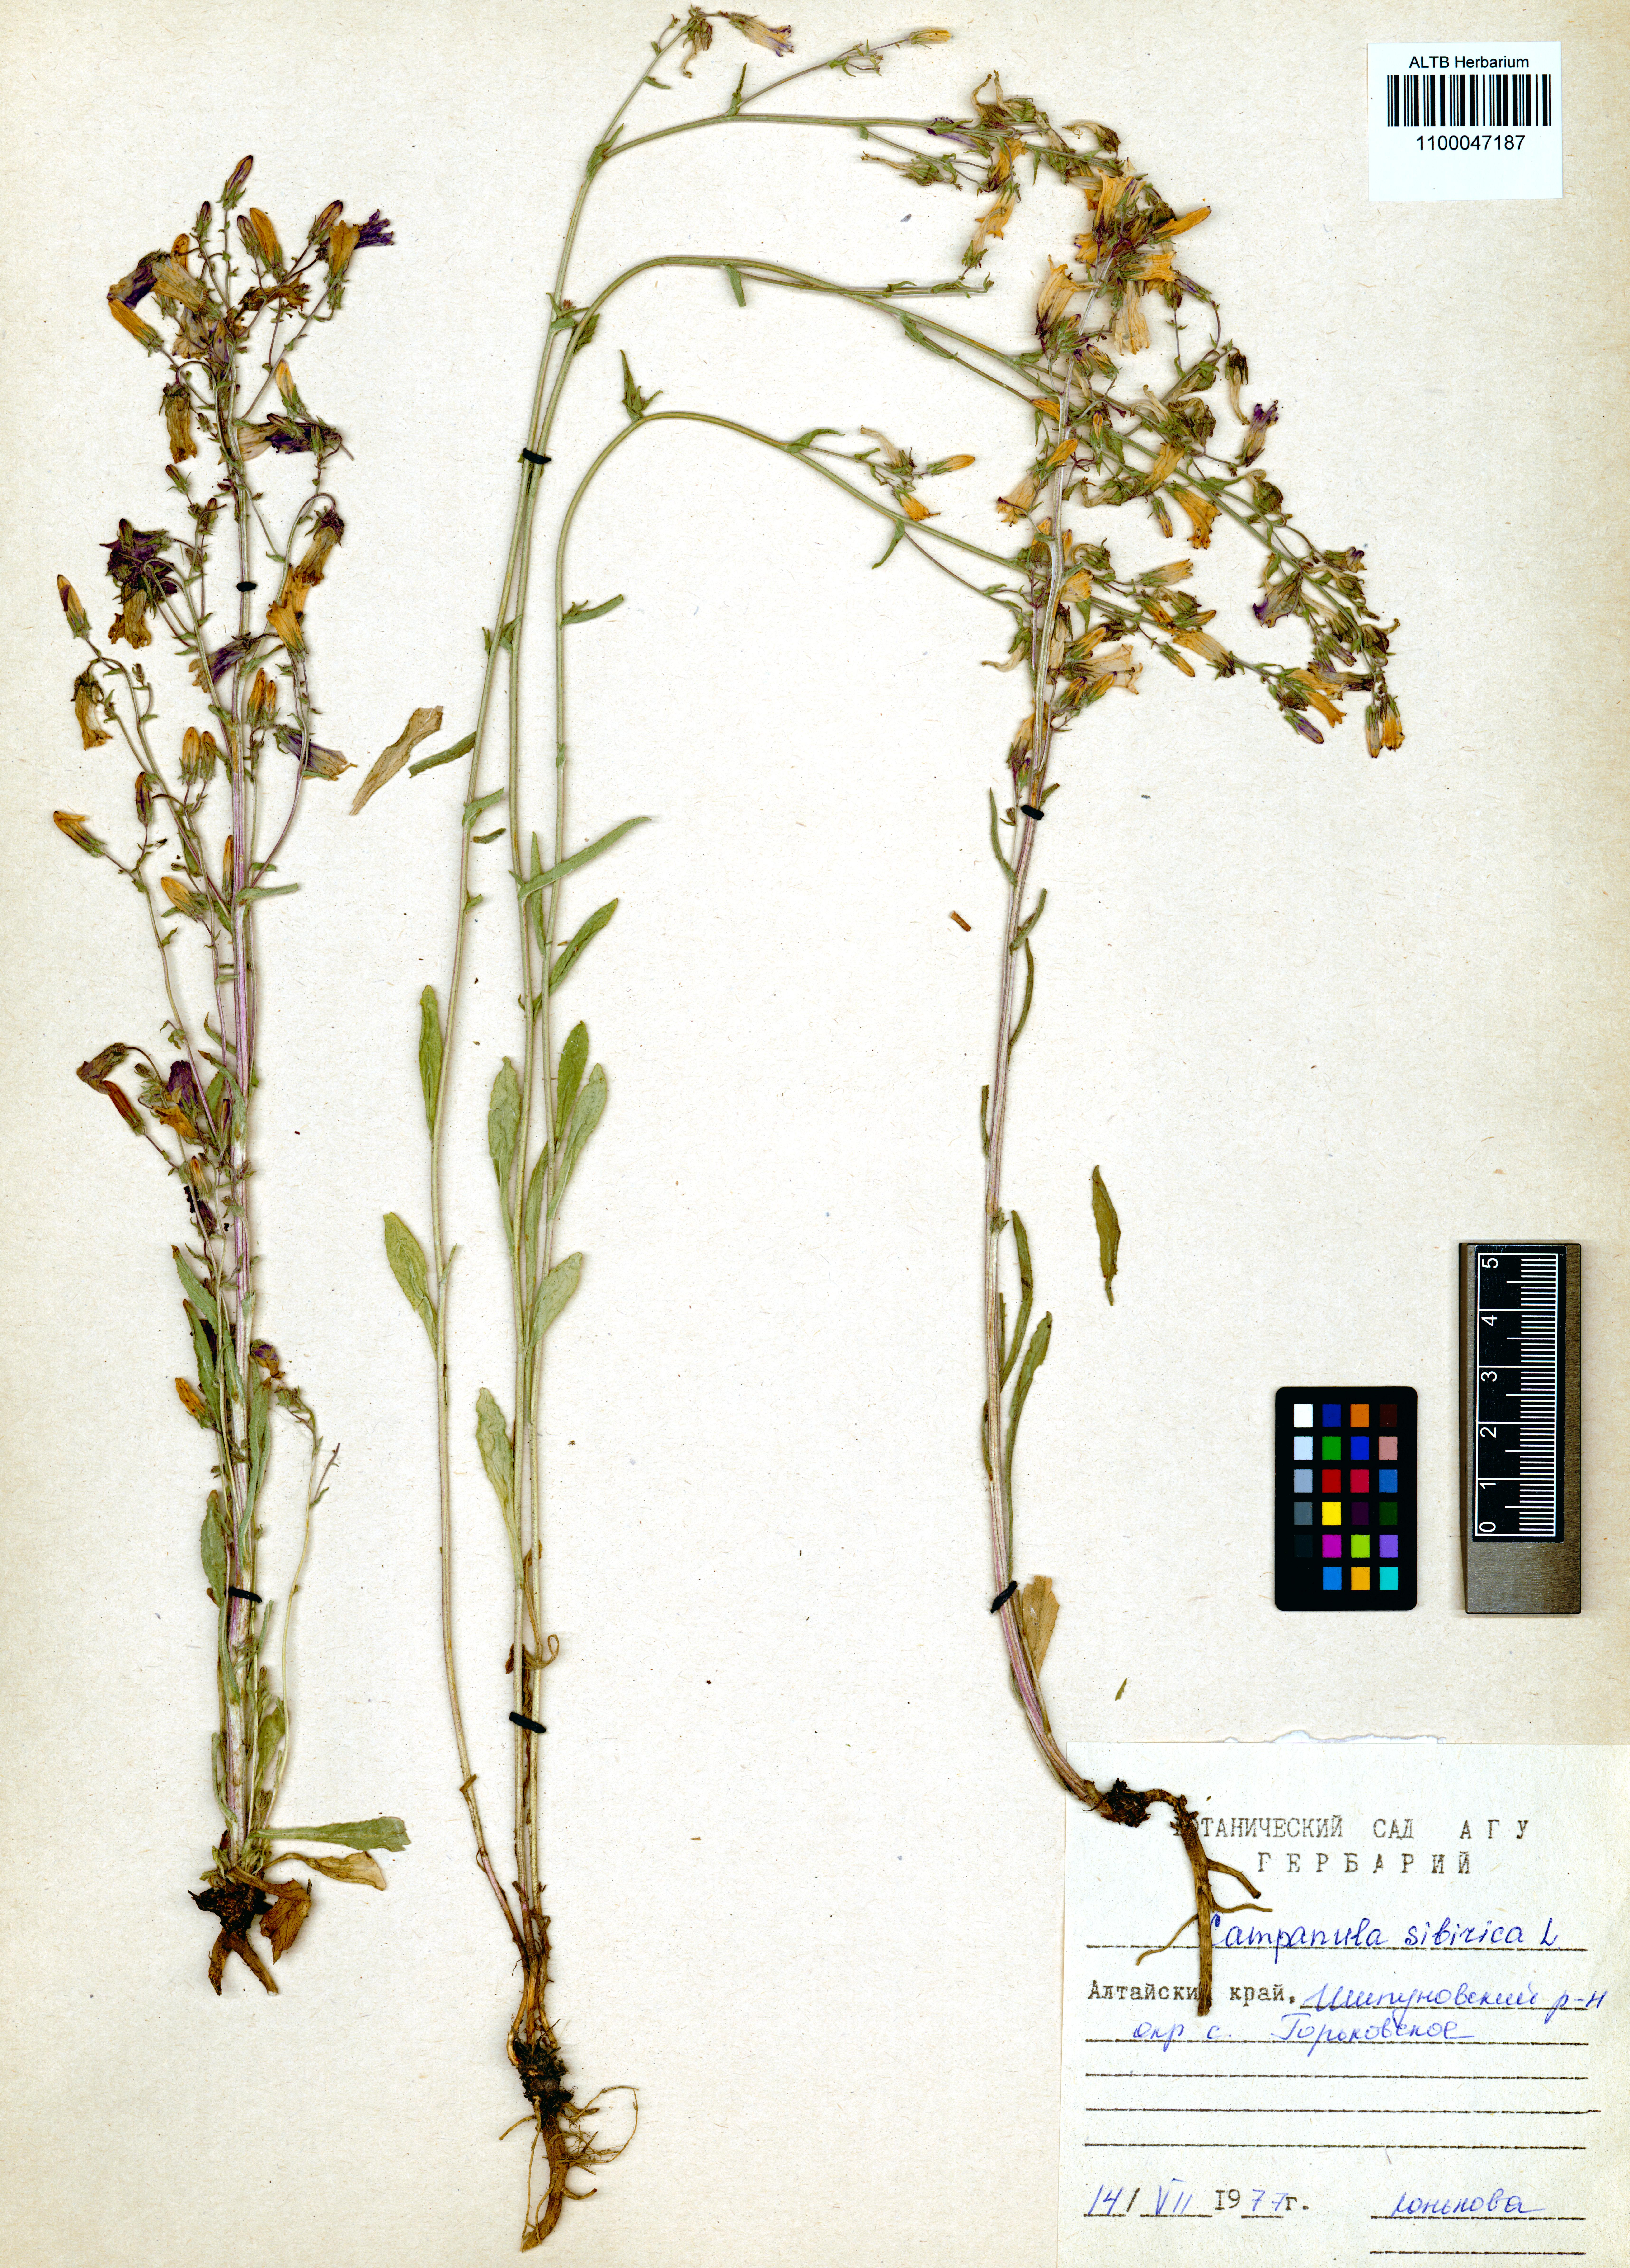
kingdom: Plantae
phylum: Tracheophyta
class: Magnoliopsida
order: Asterales
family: Campanulaceae
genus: Campanula
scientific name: Campanula sibirica
